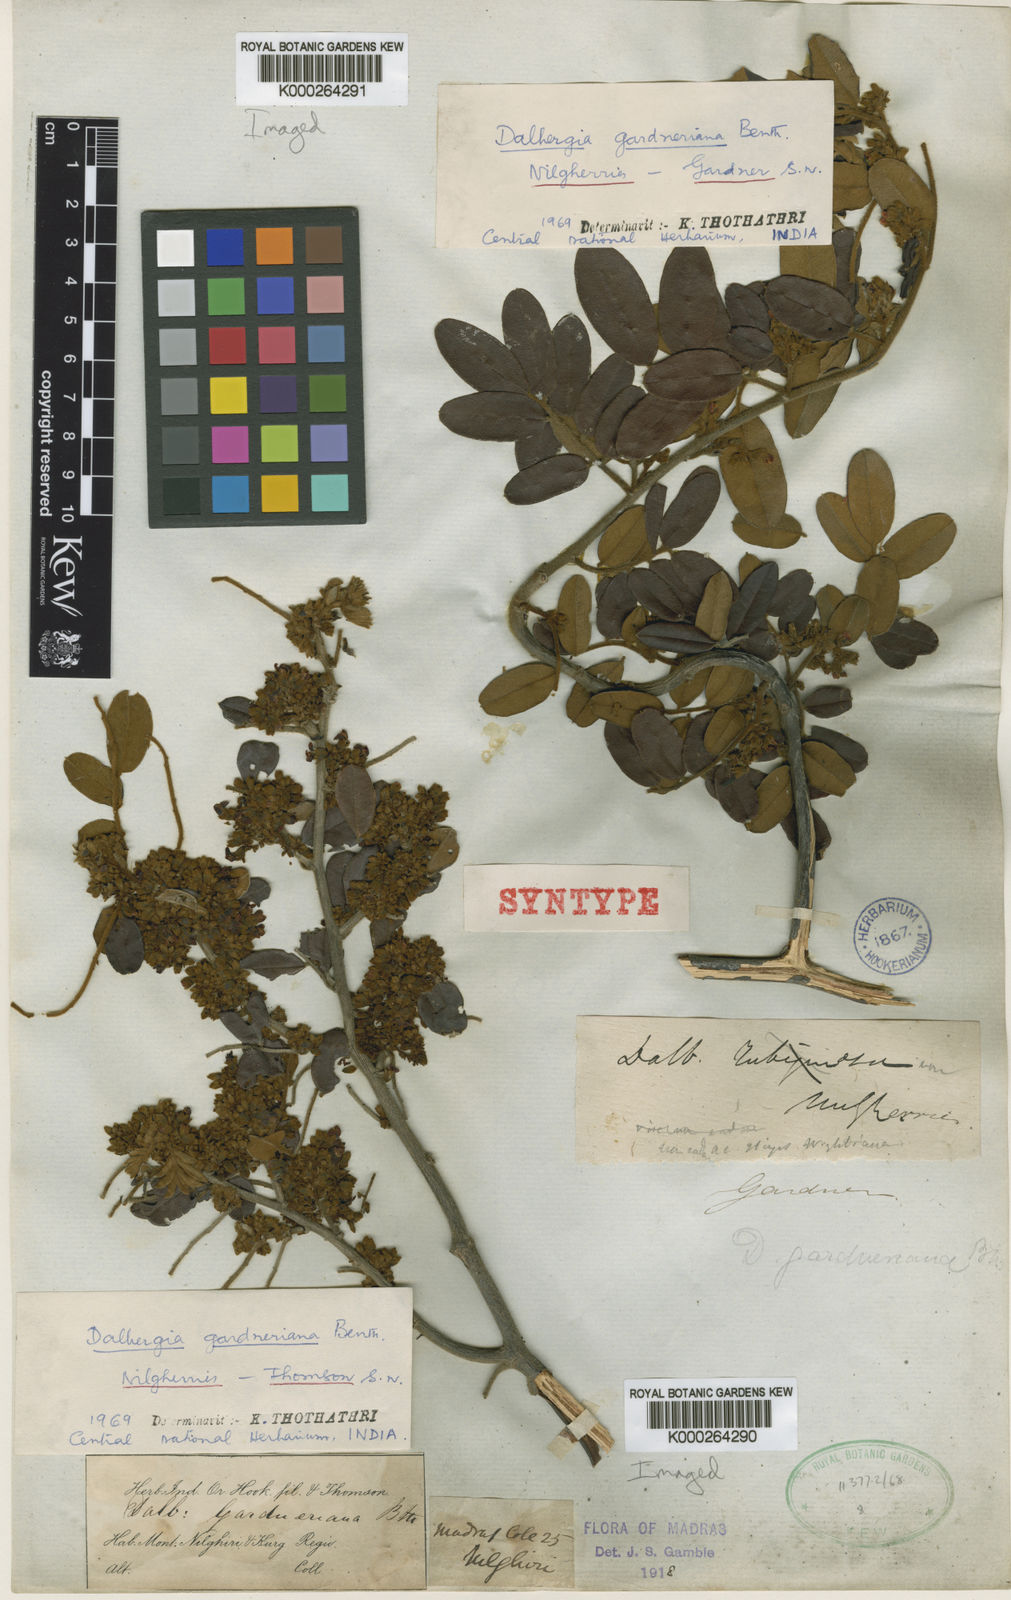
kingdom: Plantae
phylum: Tracheophyta
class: Magnoliopsida
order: Fabales
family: Fabaceae
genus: Dalbergia
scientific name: Dalbergia gardneriana
